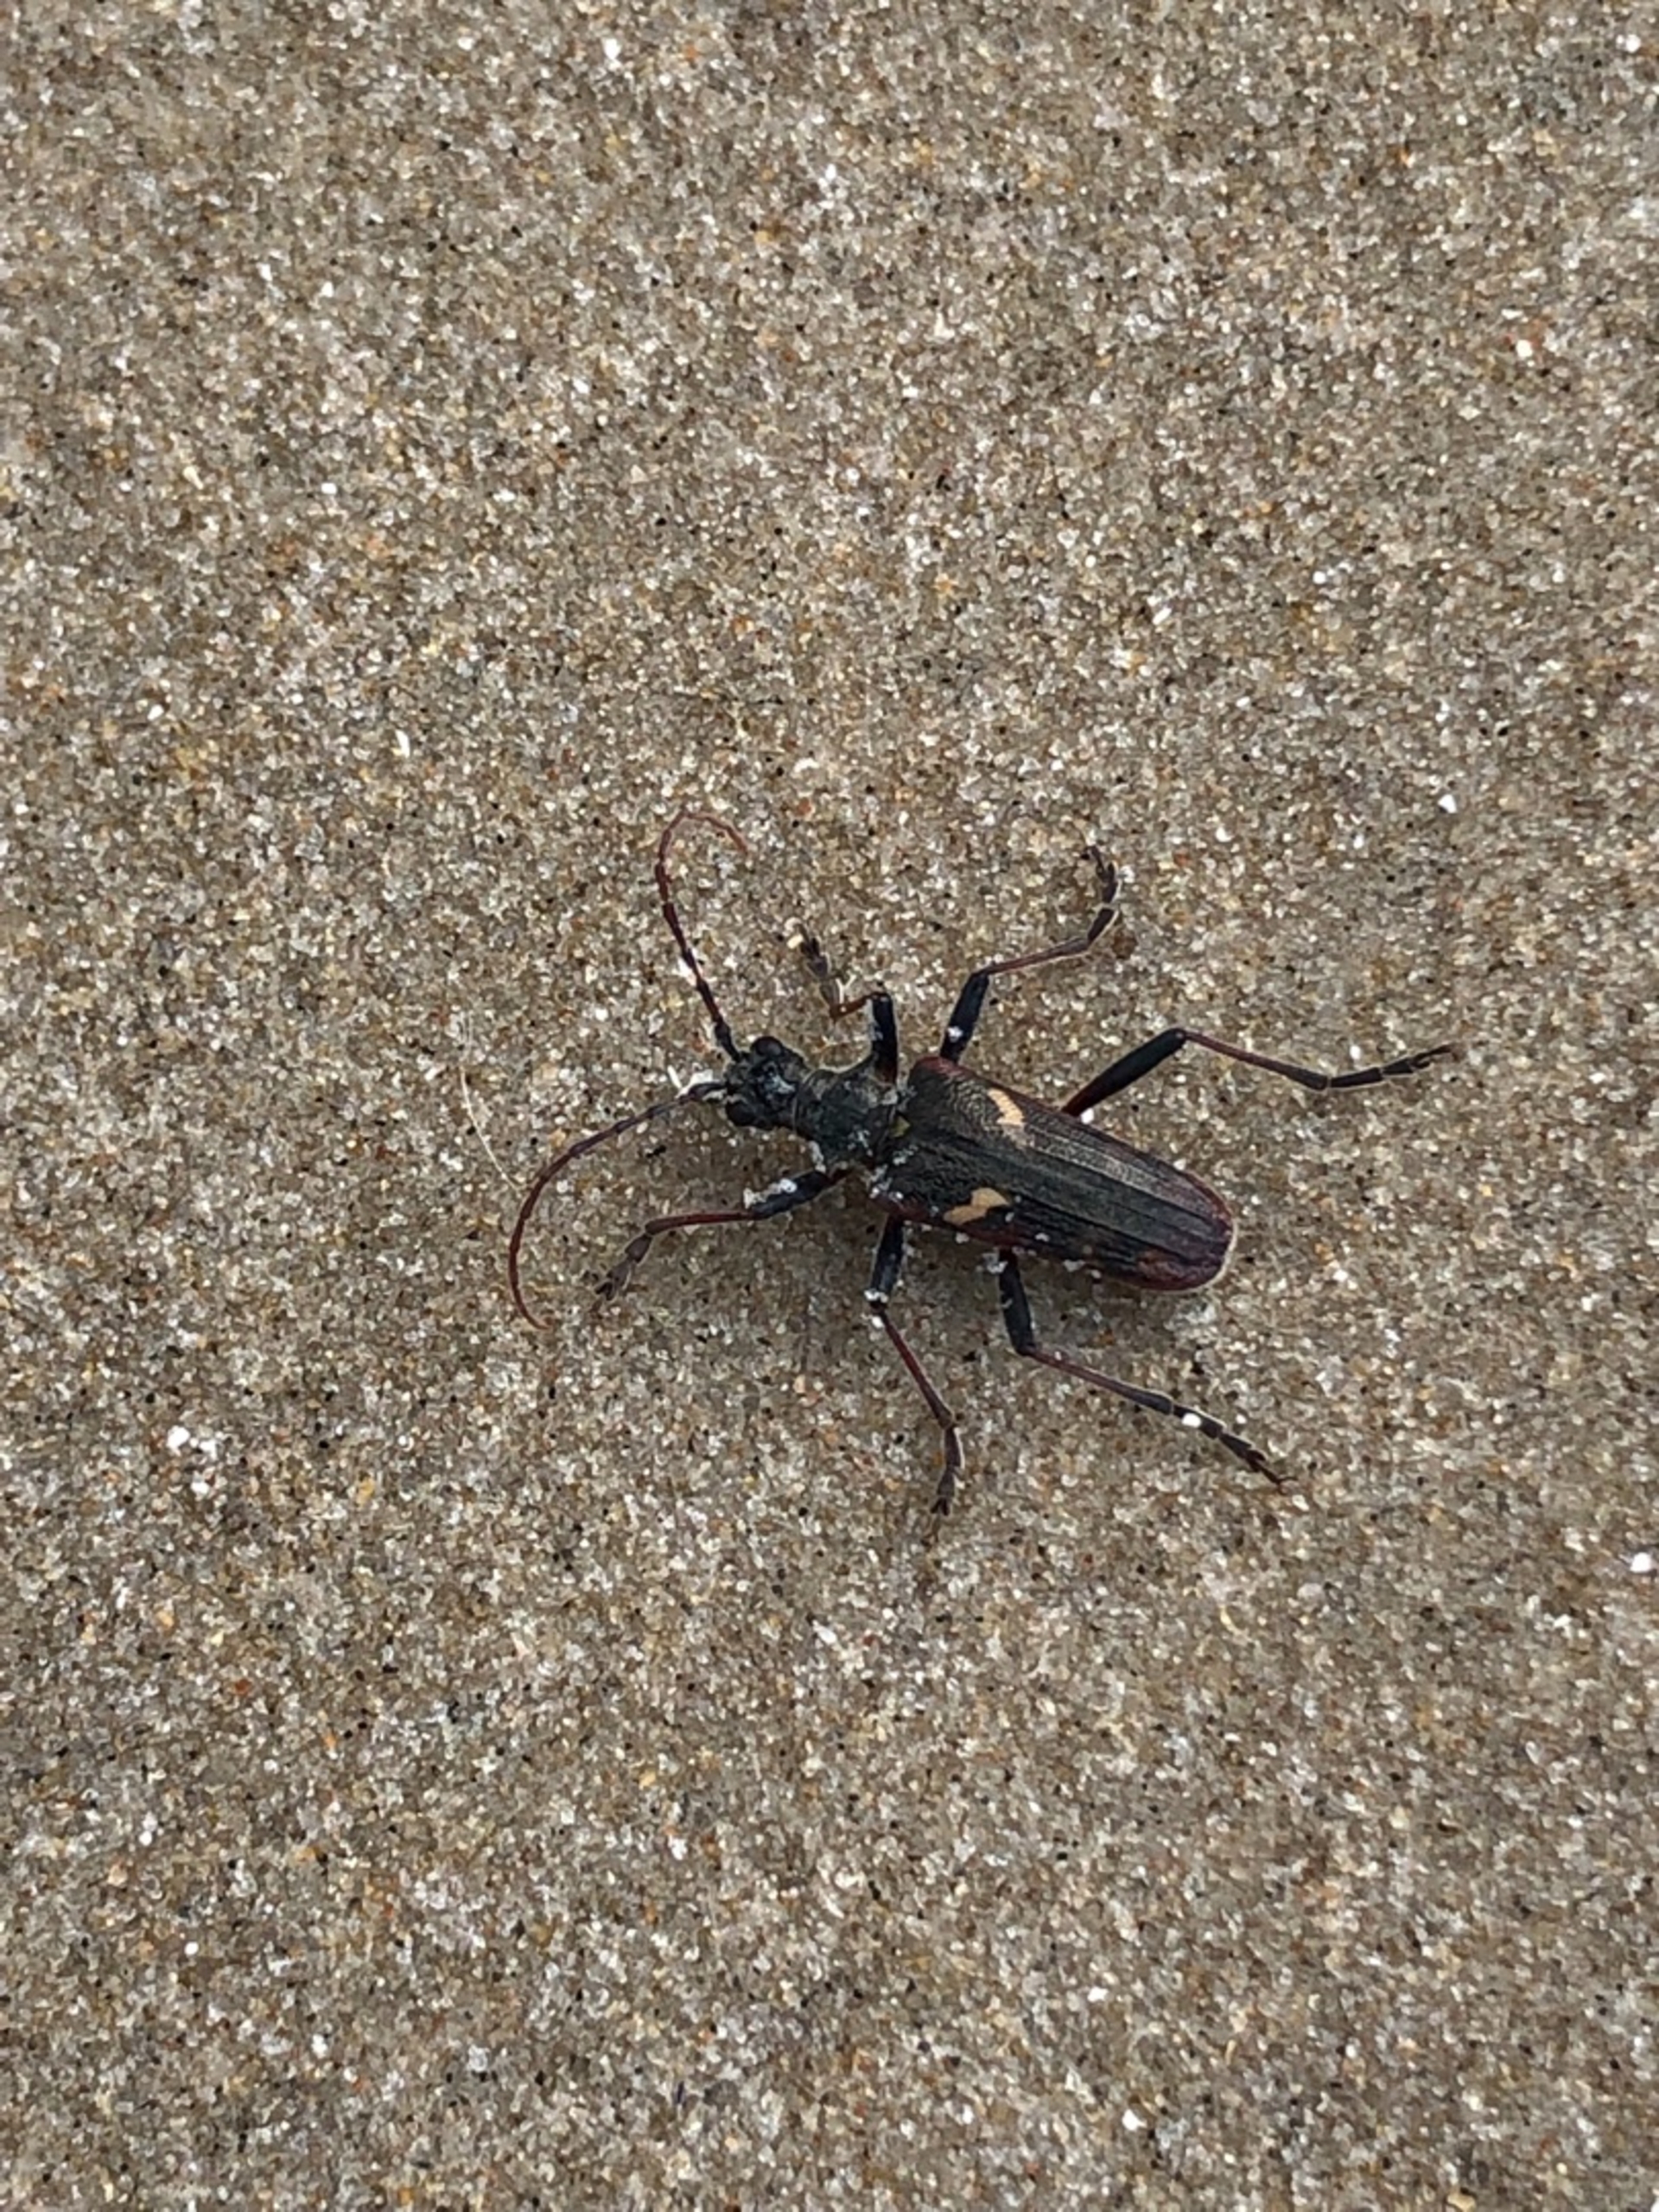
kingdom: Animalia
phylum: Arthropoda
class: Insecta
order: Coleoptera
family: Cerambycidae
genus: Rhagium
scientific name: Rhagium bifasciatum
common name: Båndet tandbuk
